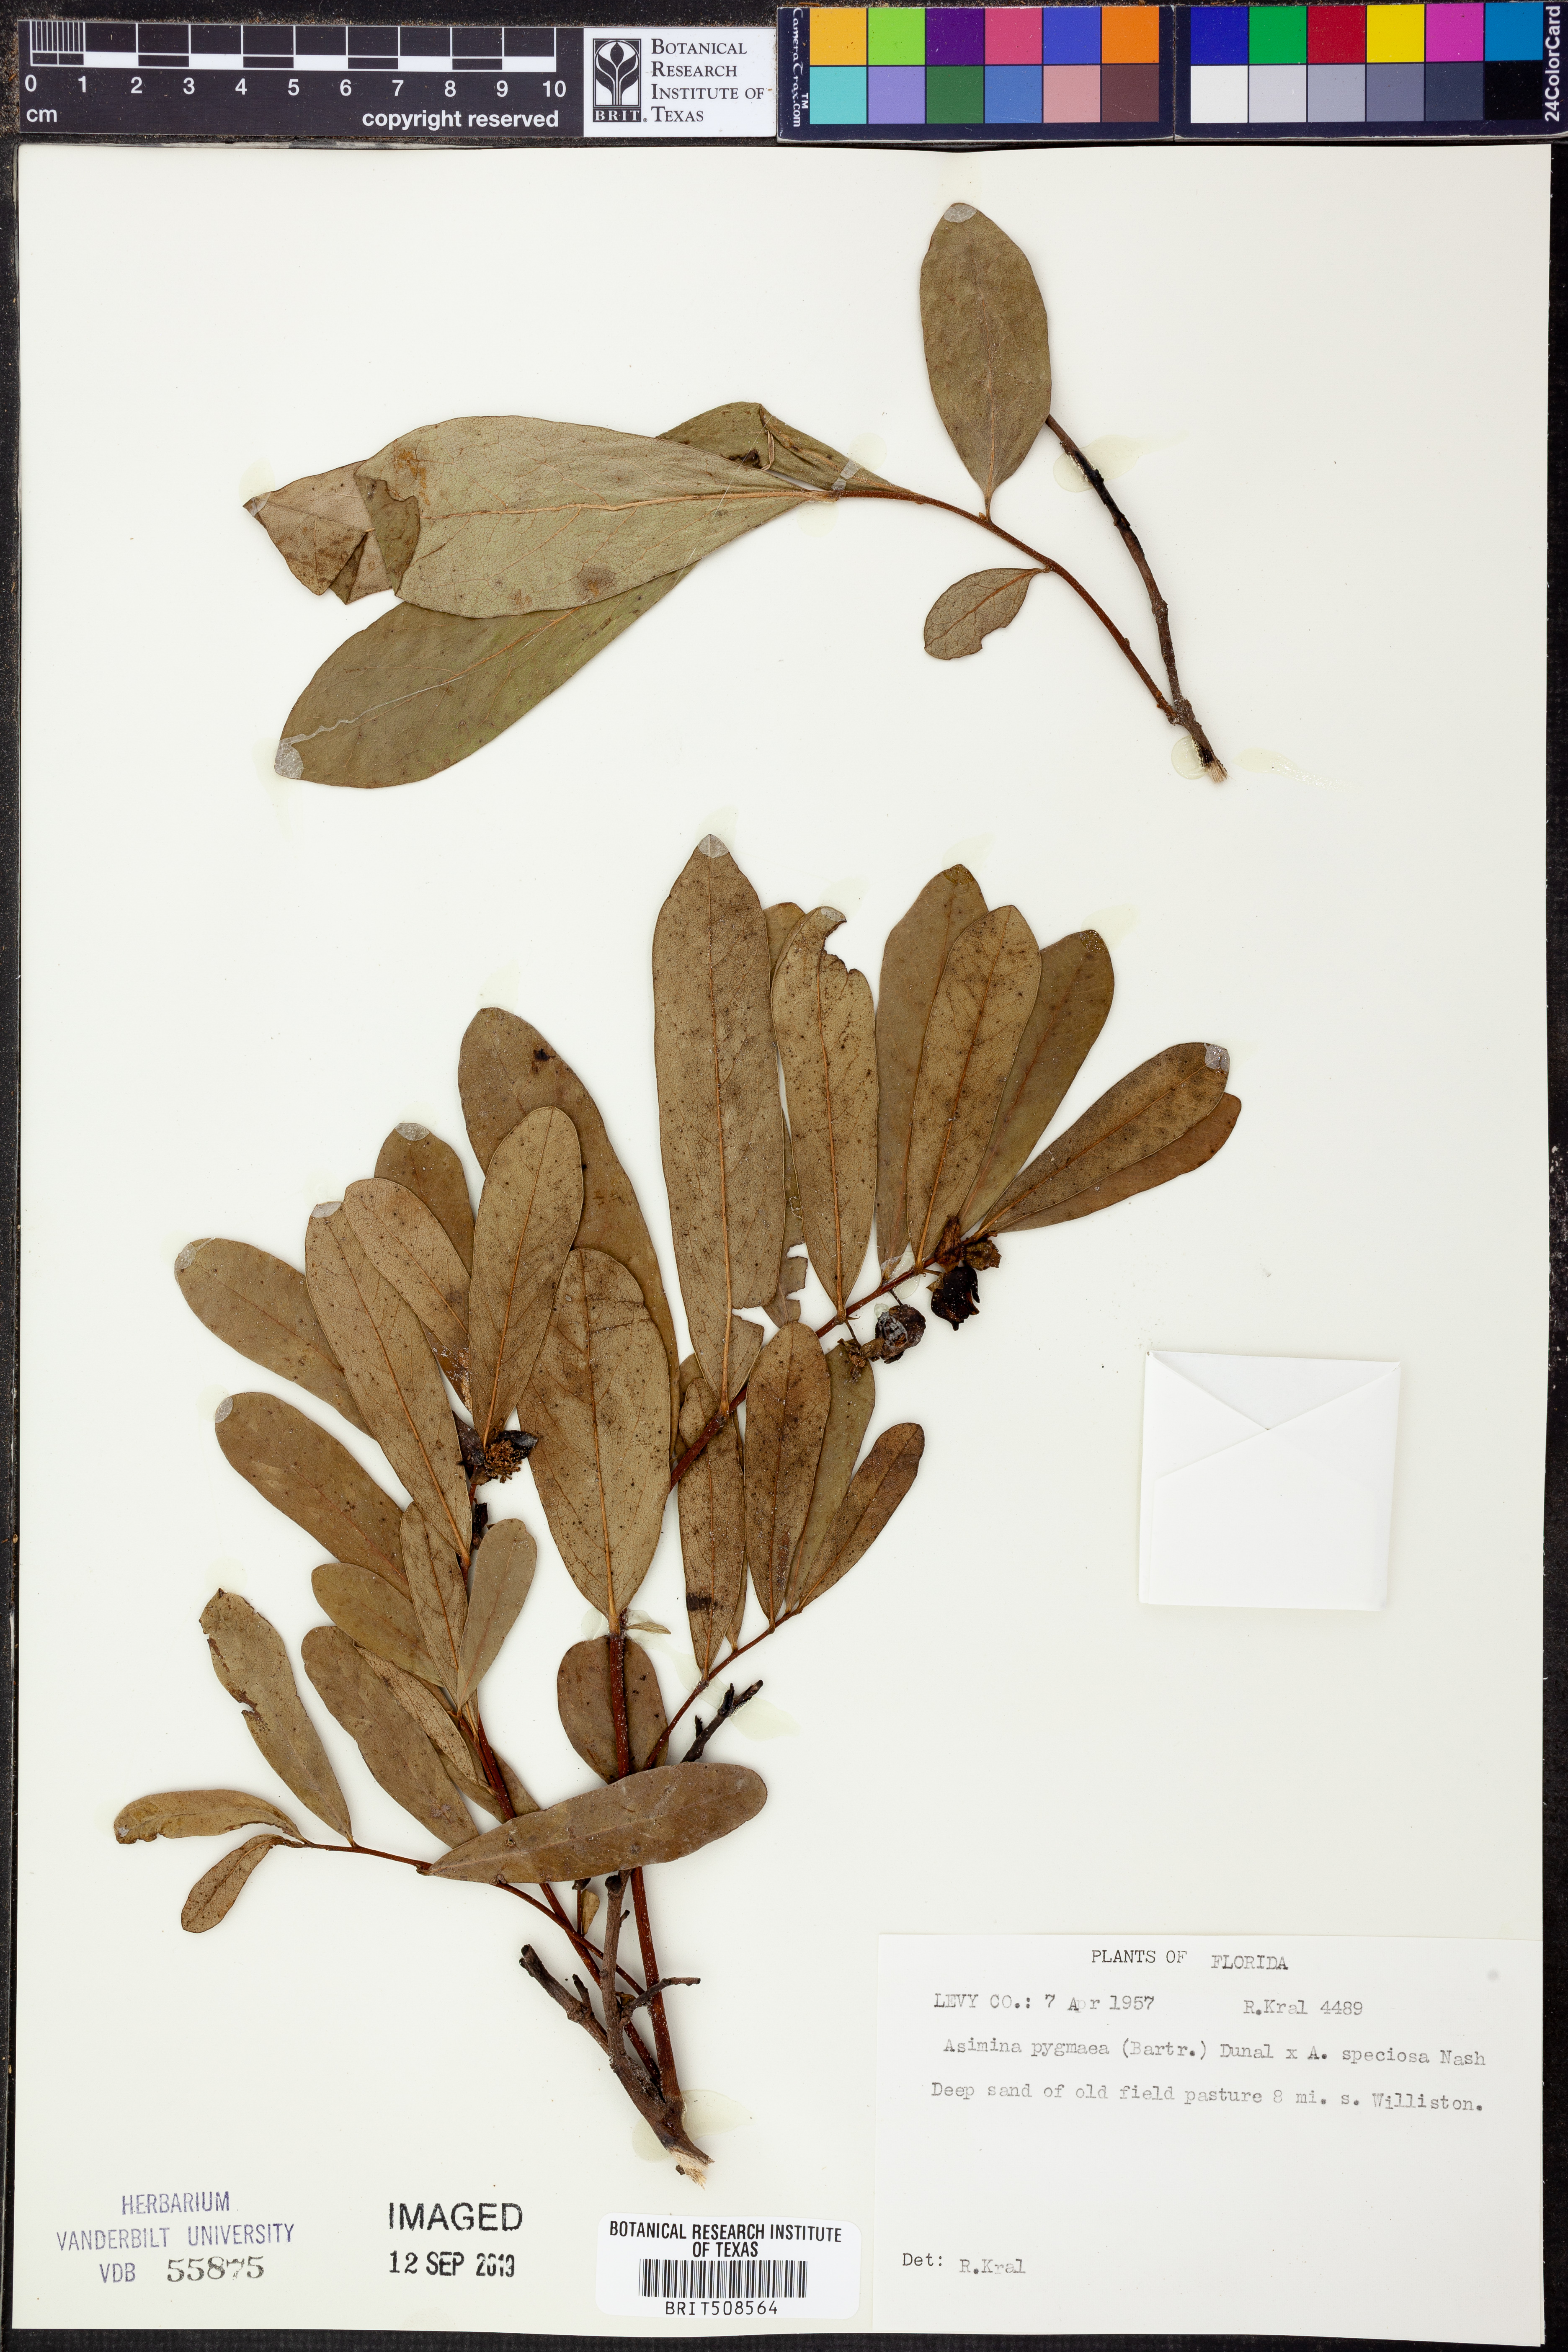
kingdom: Plantae
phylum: Tracheophyta
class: Magnoliopsida
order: Magnoliales
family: Annonaceae
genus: Asimina
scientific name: Asimina pygmaea
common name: Dwarf pawpaw
